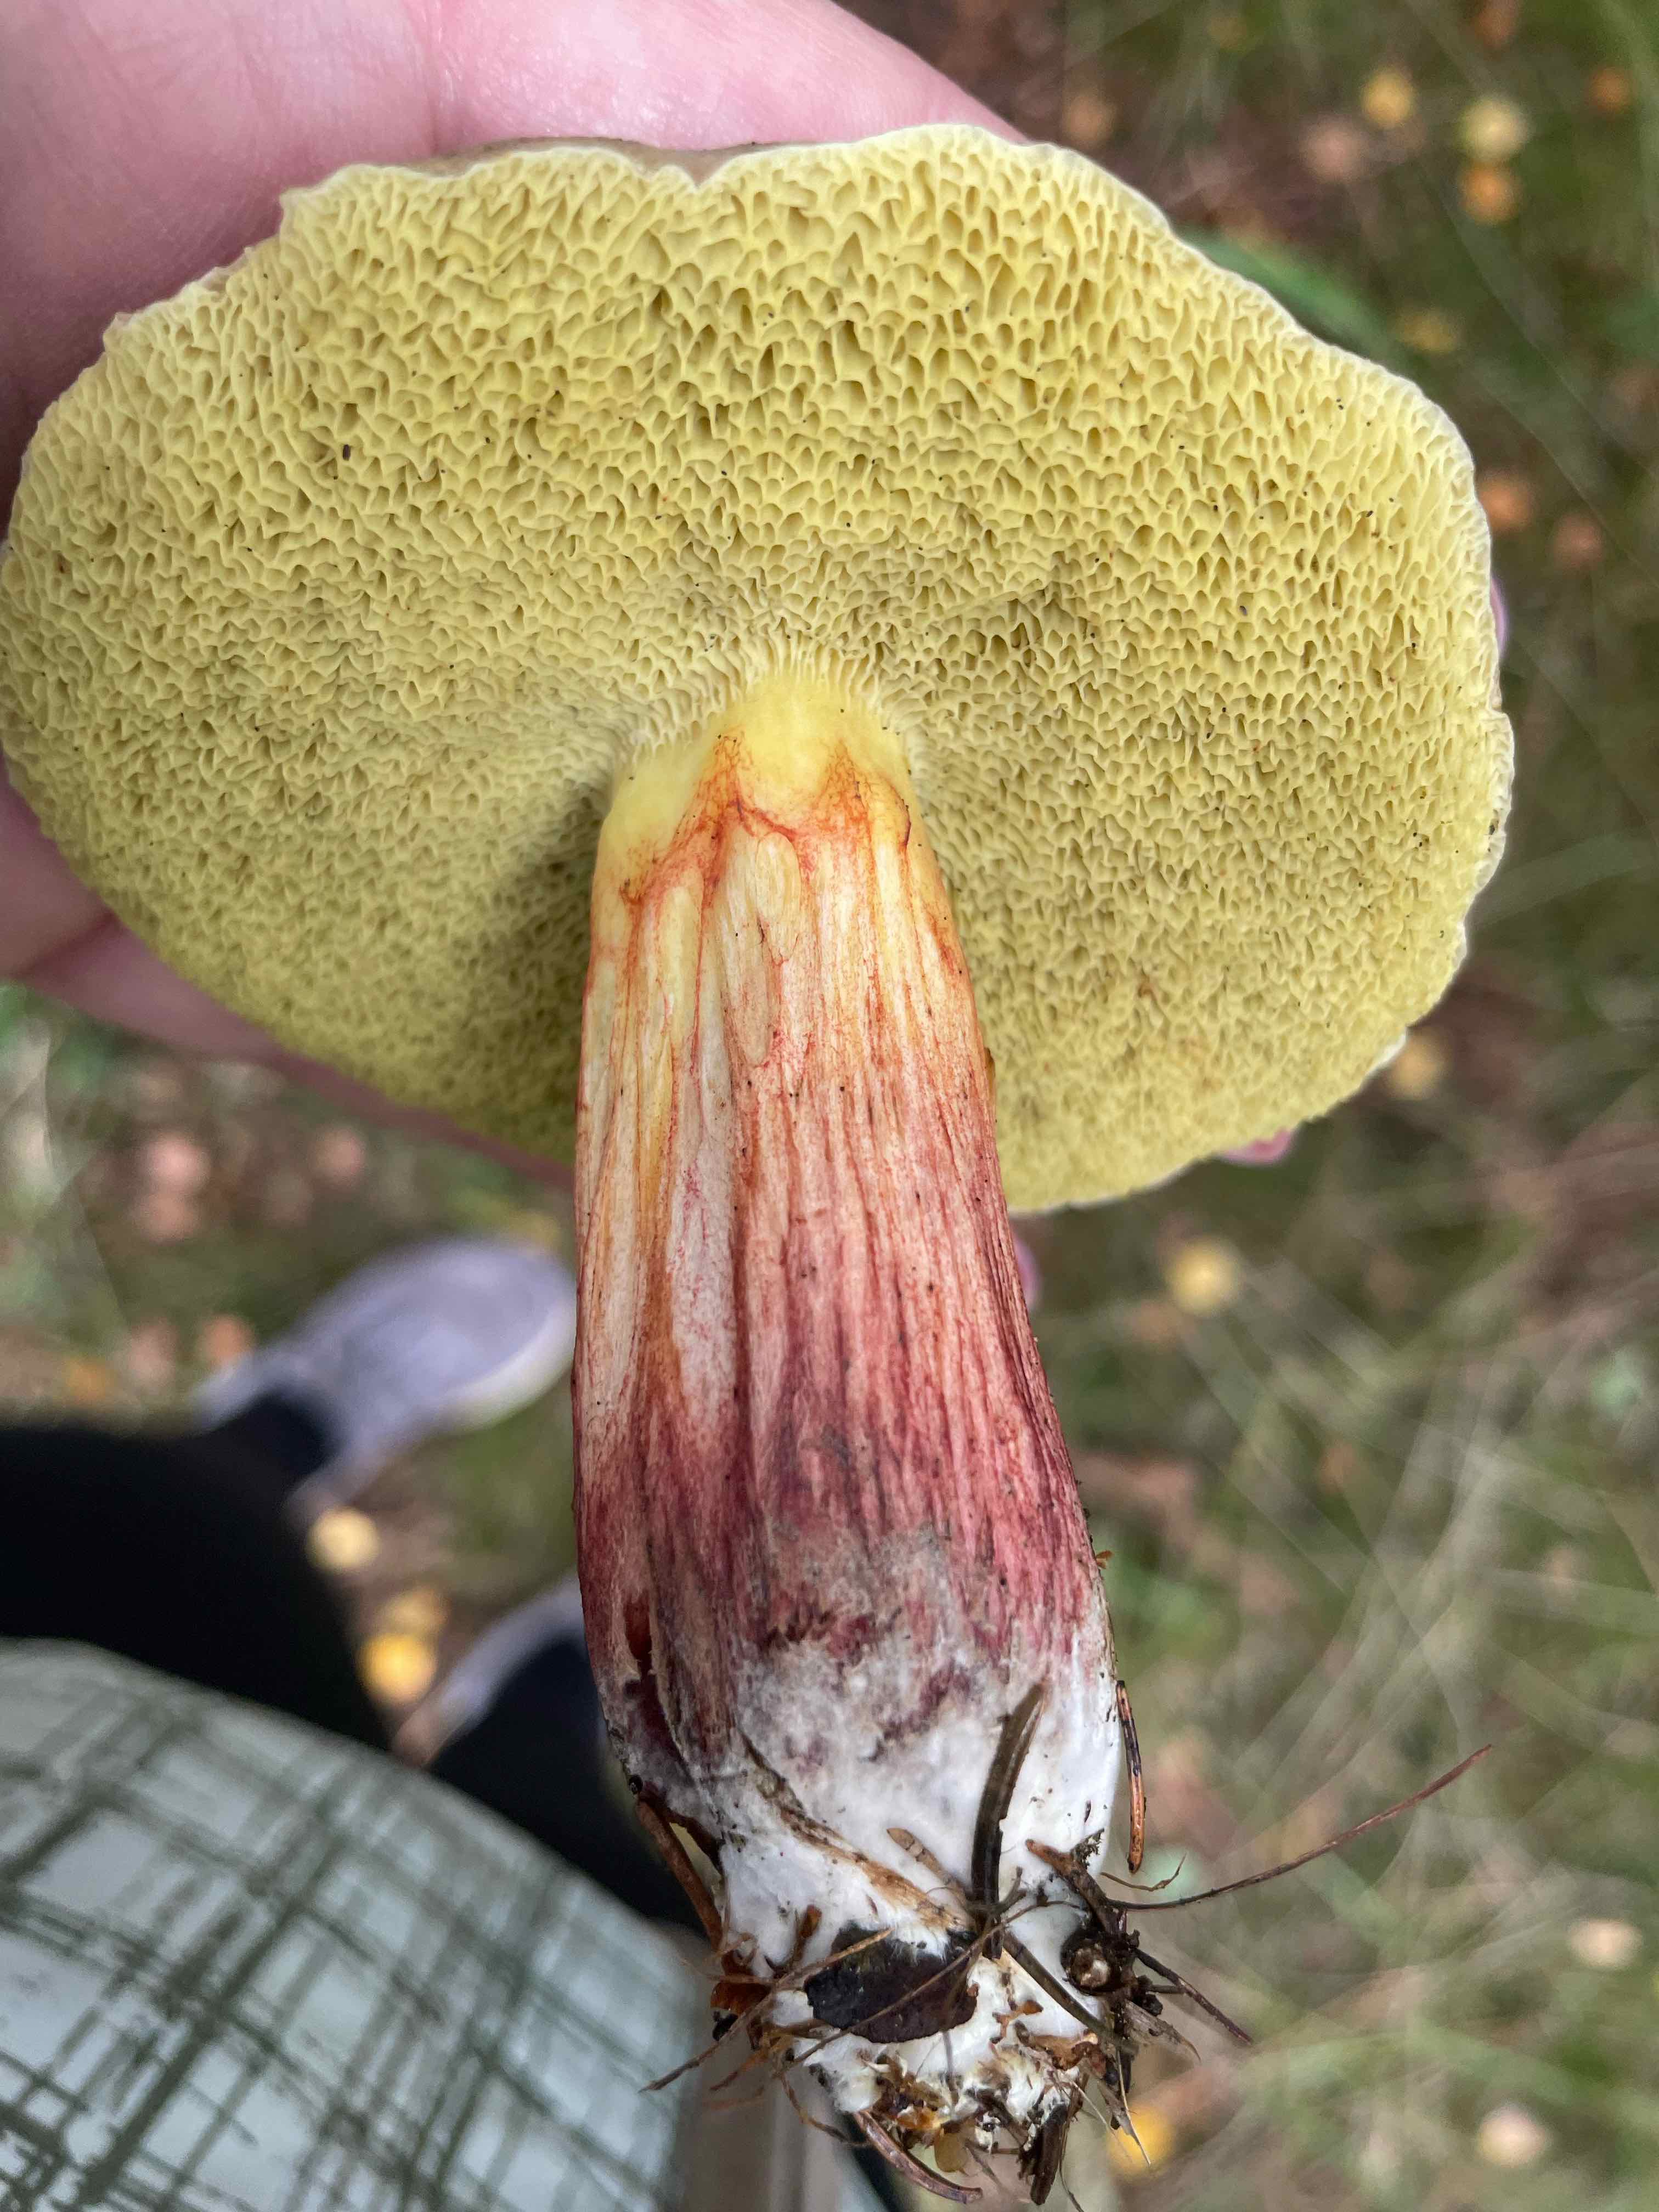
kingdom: Fungi
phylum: Basidiomycota
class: Agaricomycetes
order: Boletales
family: Boletaceae
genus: Xerocomellus
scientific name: Xerocomellus
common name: dværgrørhat
